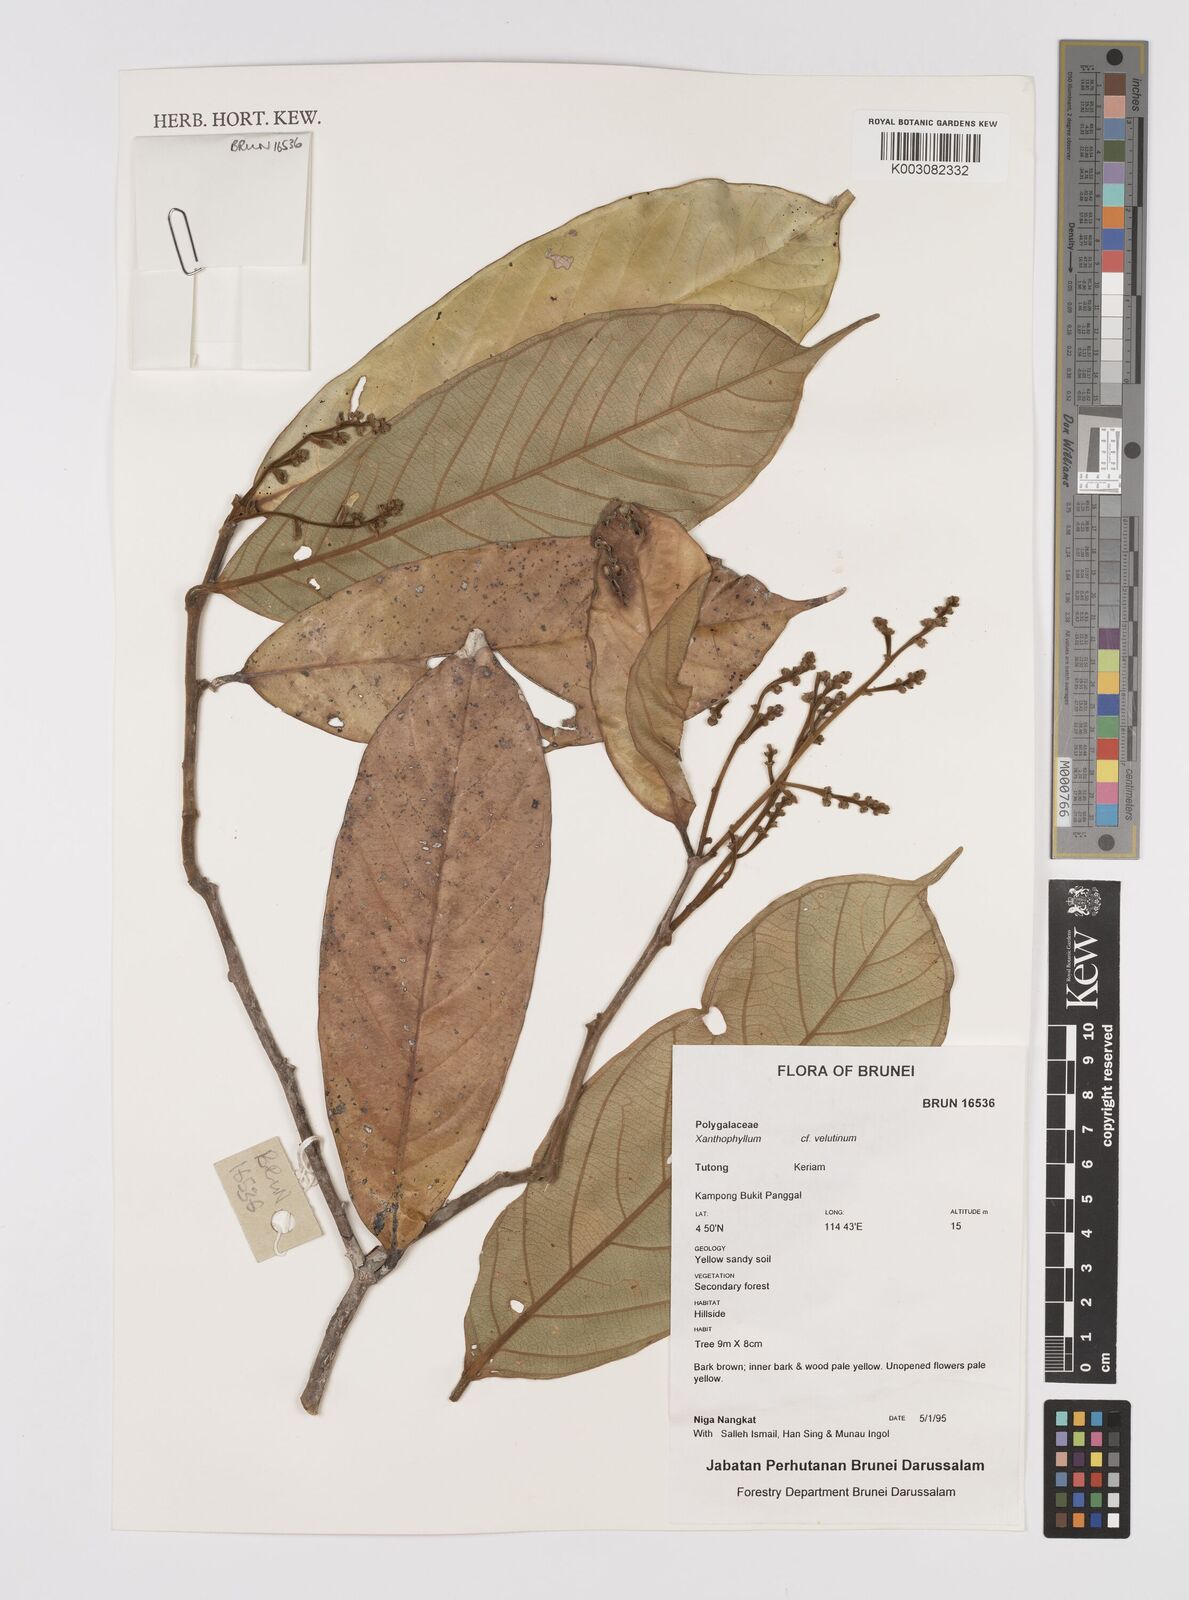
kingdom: Plantae
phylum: Tracheophyta
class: Magnoliopsida
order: Fabales
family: Polygalaceae
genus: Xanthophyllum
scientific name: Xanthophyllum velutinum
